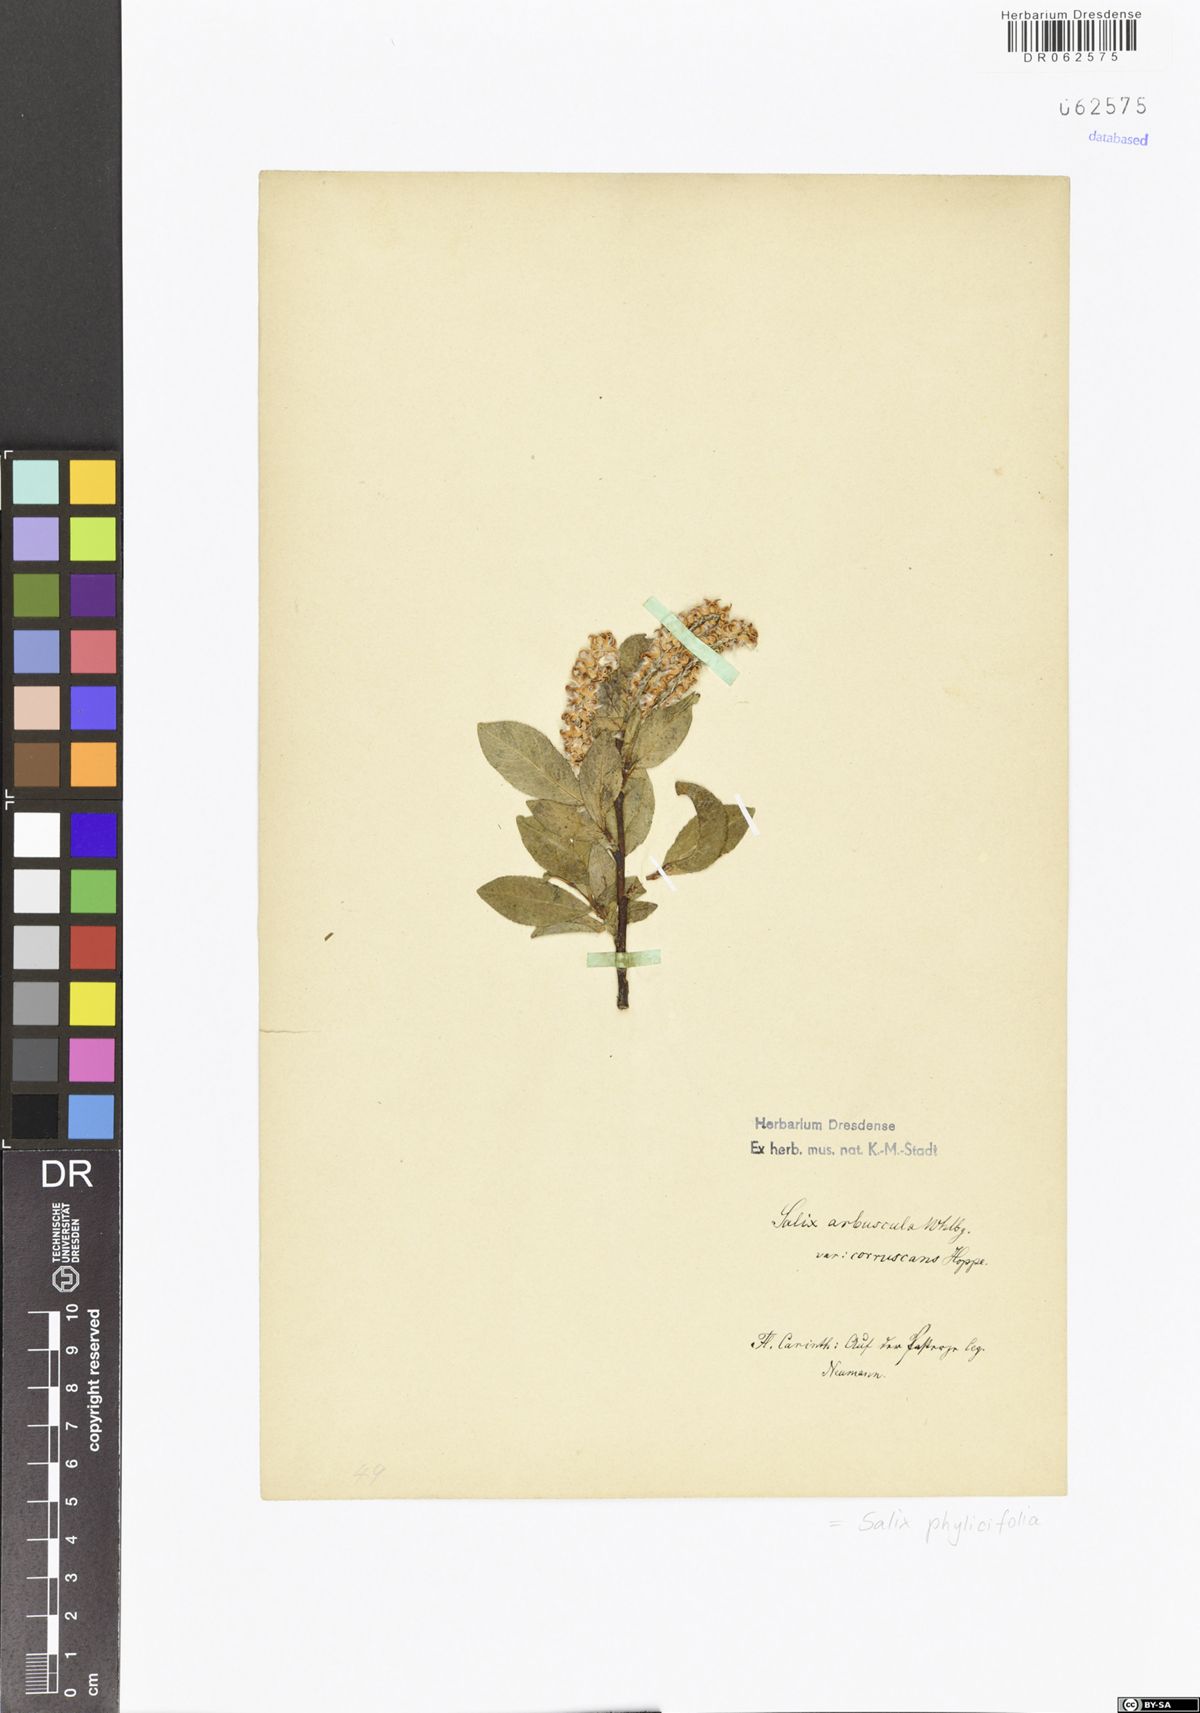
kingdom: Plantae
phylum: Tracheophyta
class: Magnoliopsida
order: Malpighiales
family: Salicaceae
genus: Salix
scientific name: Salix phylicifolia
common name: Tea-leaved willow
